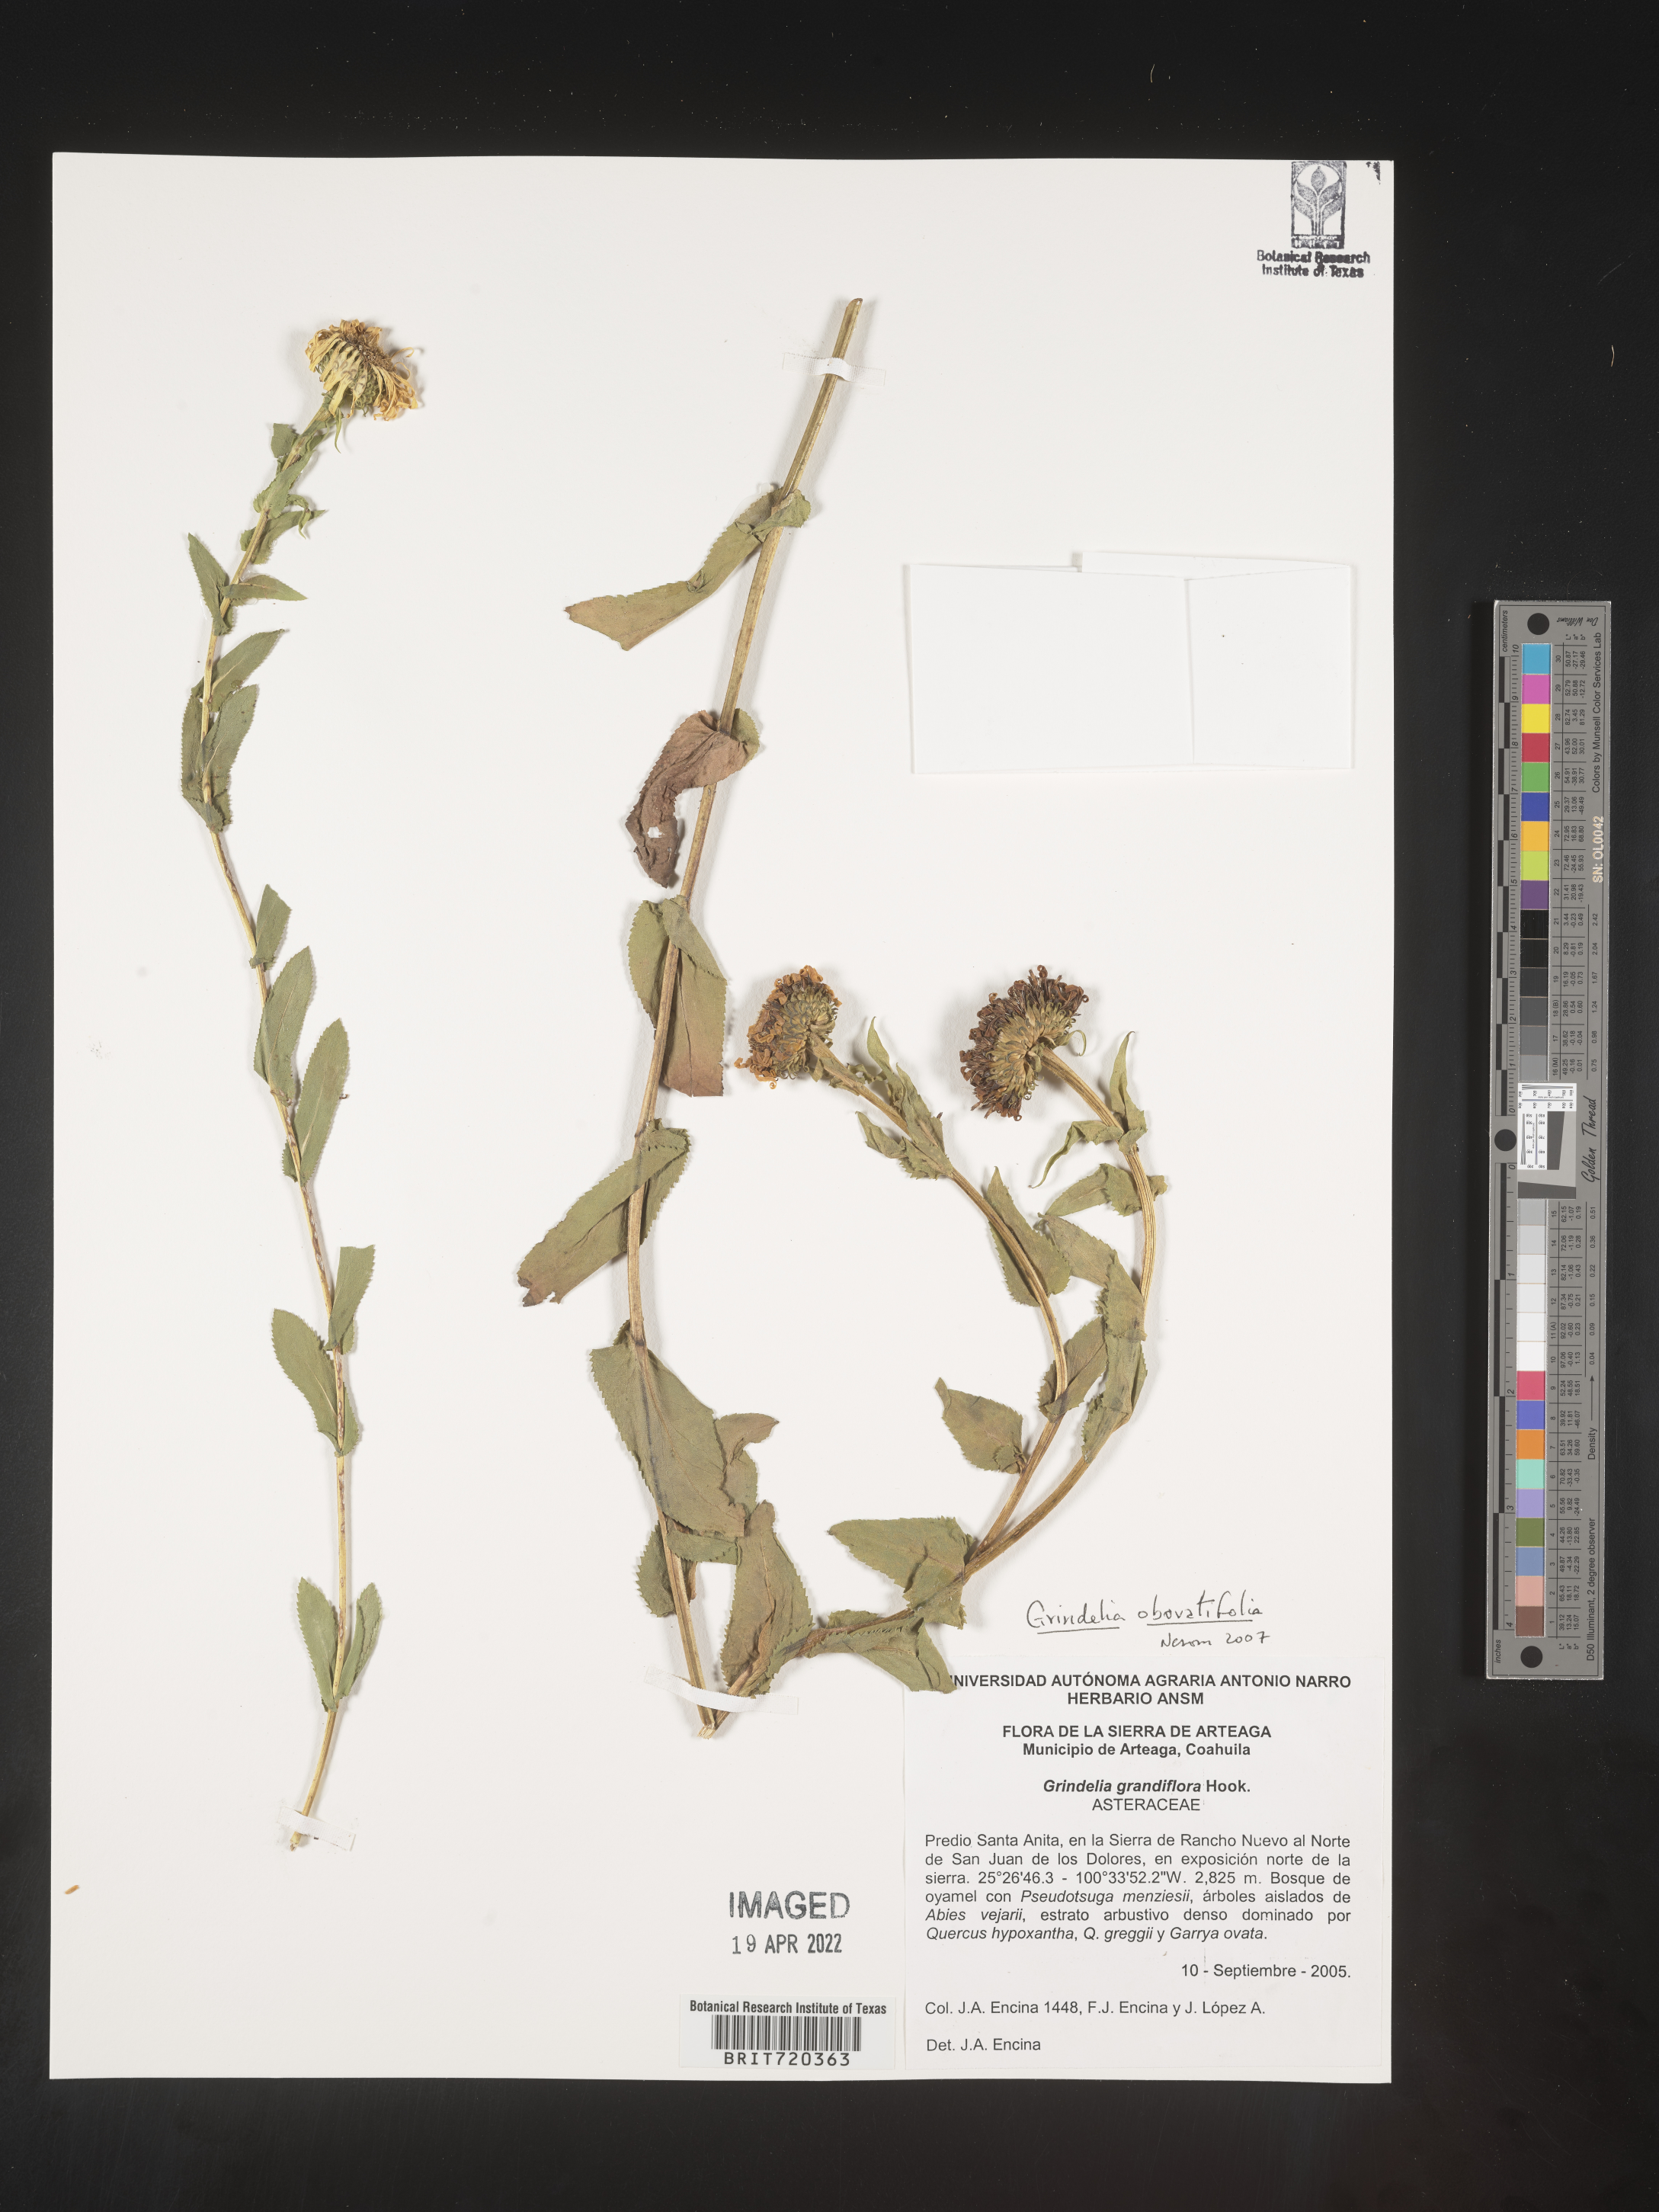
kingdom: Plantae
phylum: Tracheophyta
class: Magnoliopsida
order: Asterales
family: Asteraceae
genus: Grindelia
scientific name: Grindelia
